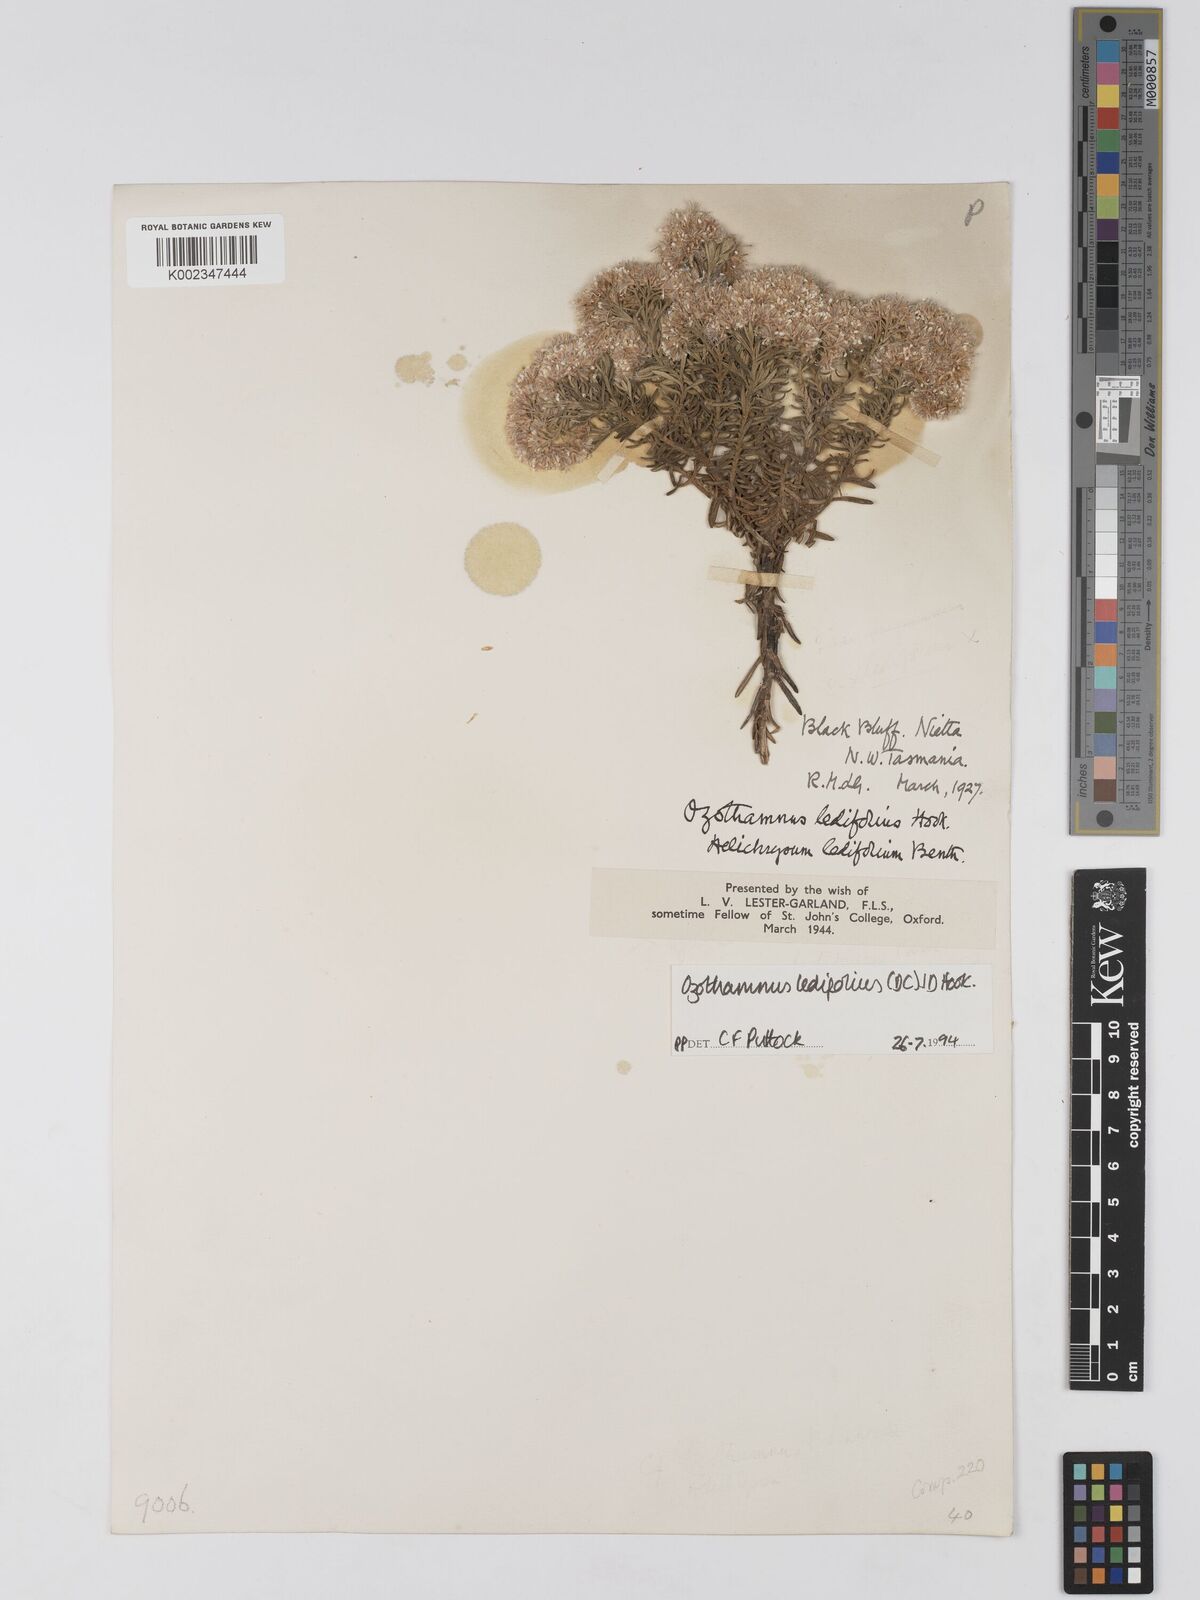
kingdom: Plantae
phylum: Tracheophyta
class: Magnoliopsida
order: Asterales
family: Asteraceae
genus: Ozothamnus
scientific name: Ozothamnus ledifolius
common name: Kerosene-weed
